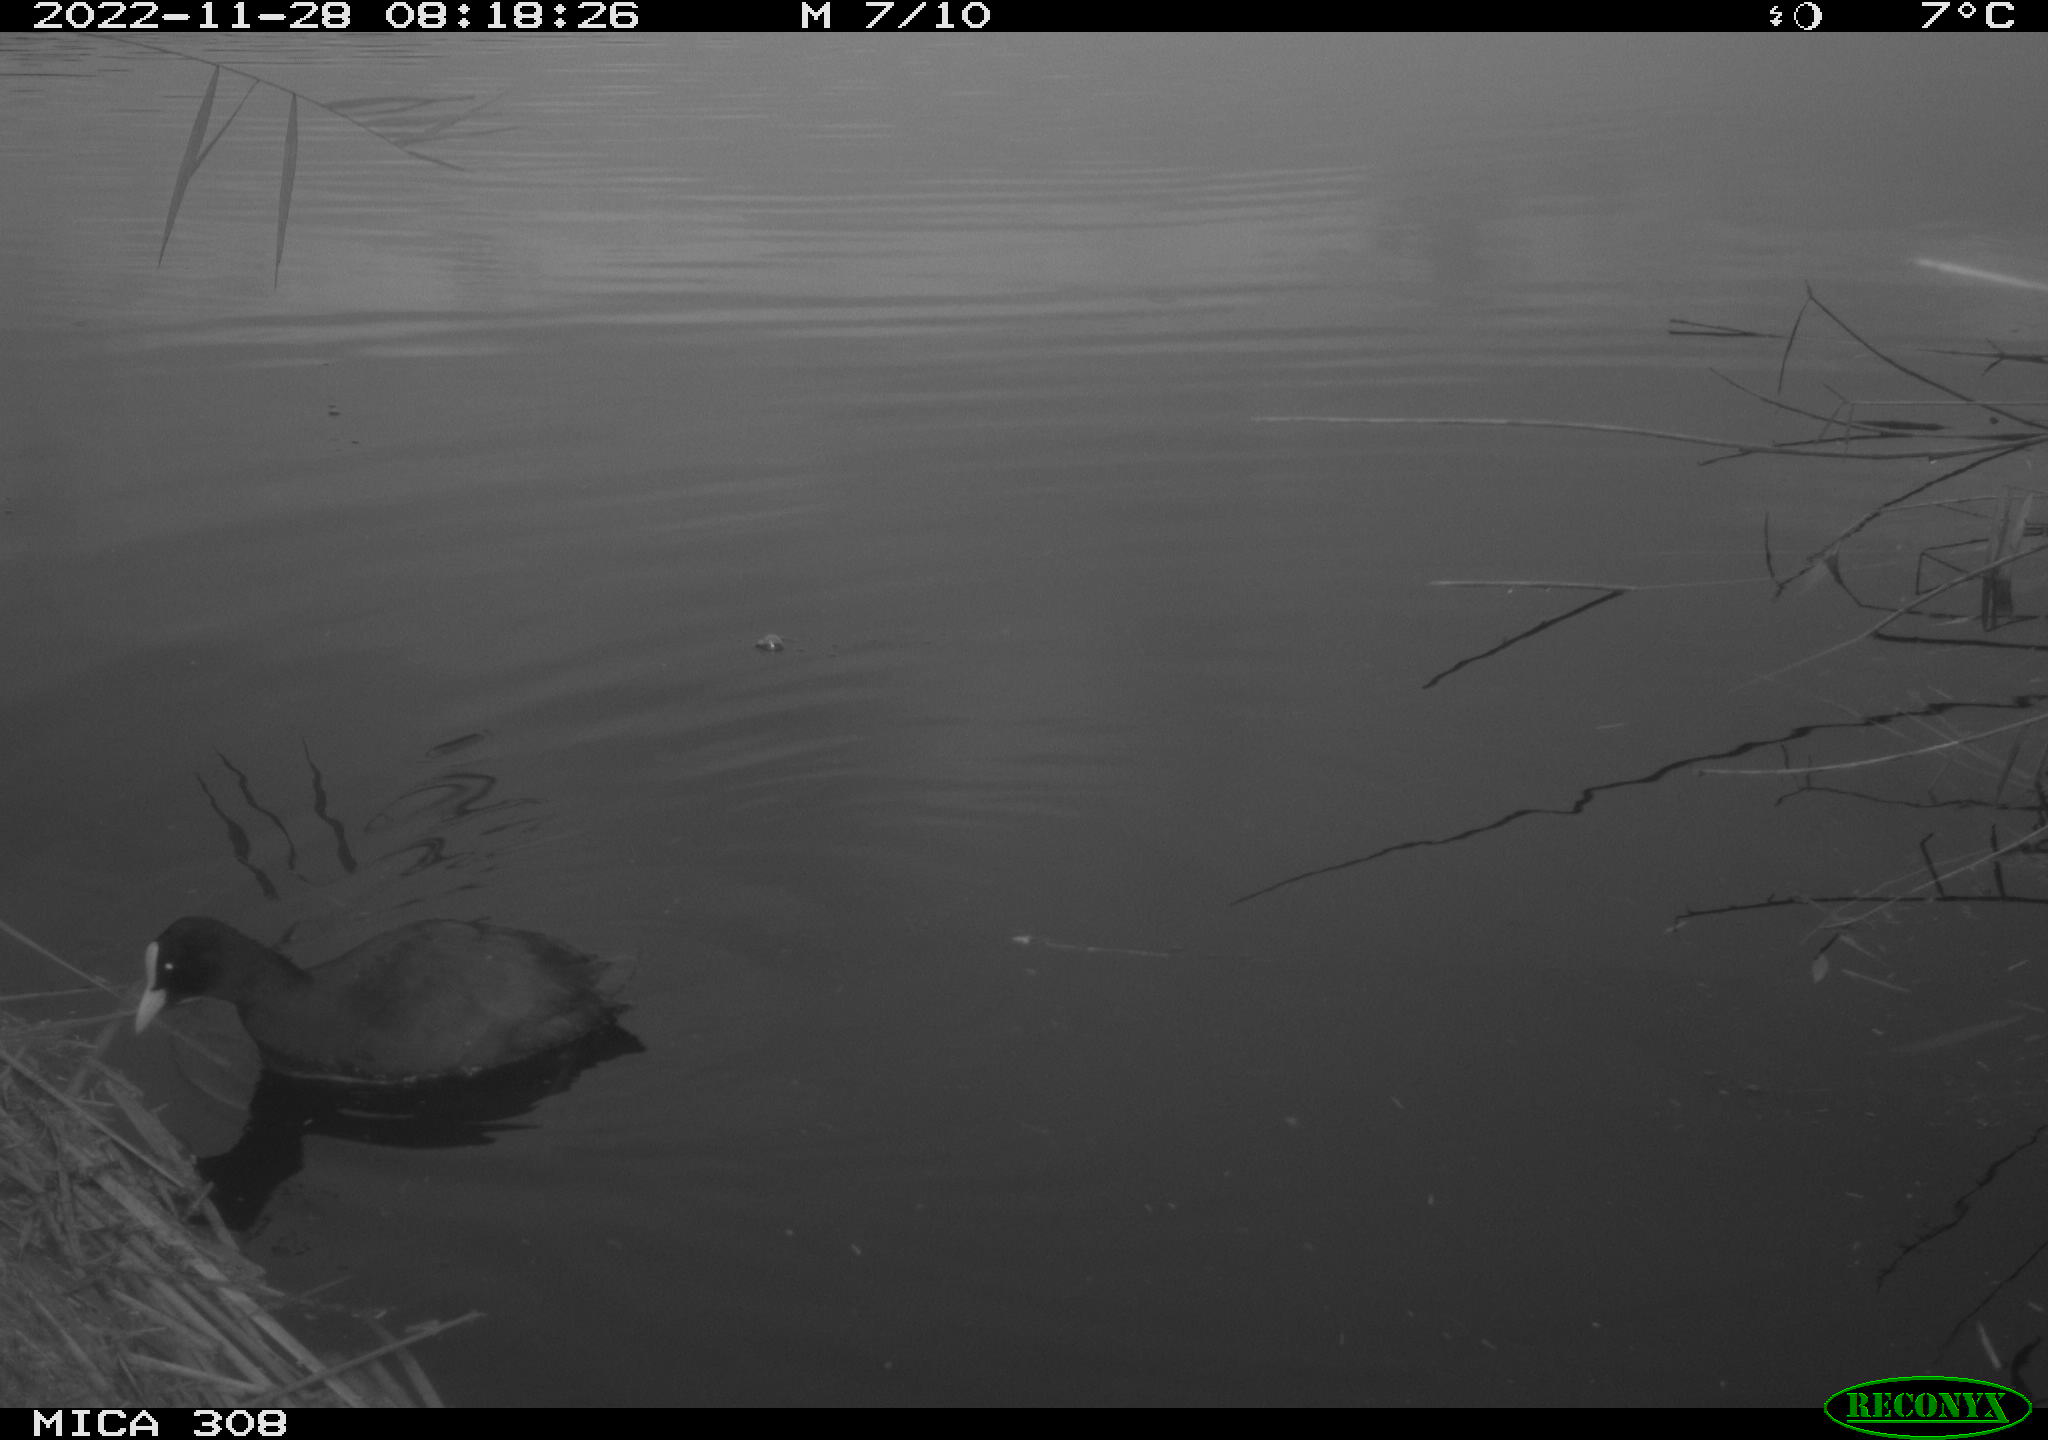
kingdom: Animalia
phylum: Chordata
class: Aves
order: Gruiformes
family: Rallidae
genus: Fulica
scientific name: Fulica atra
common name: Eurasian coot
